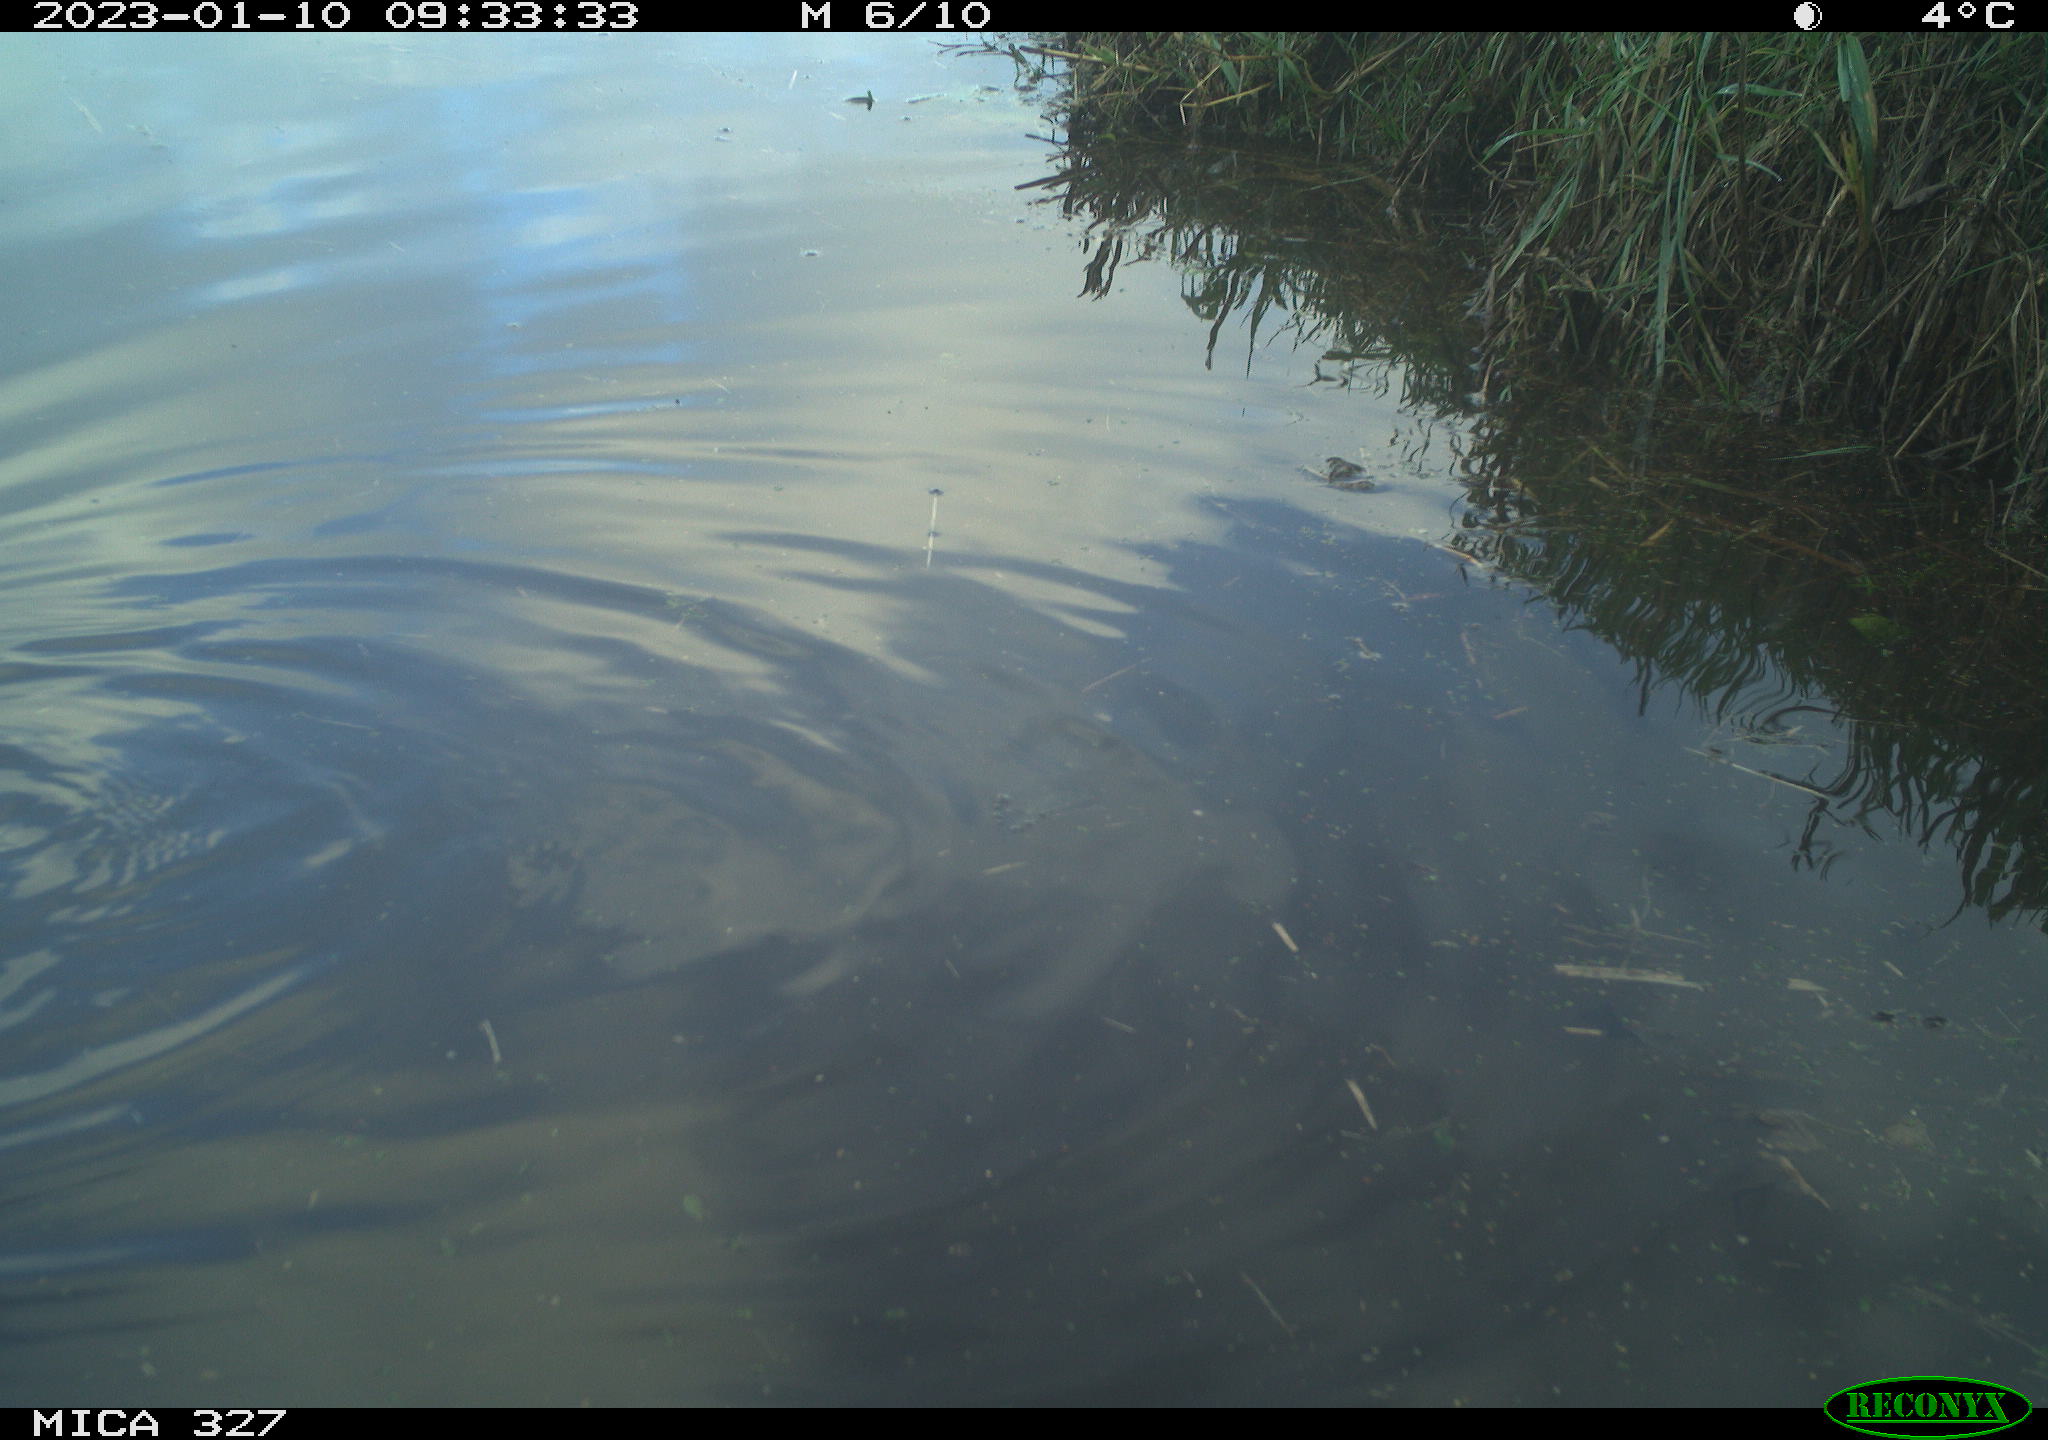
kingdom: Animalia
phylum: Chordata
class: Aves
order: Gruiformes
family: Rallidae
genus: Gallinula
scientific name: Gallinula chloropus
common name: Common moorhen
